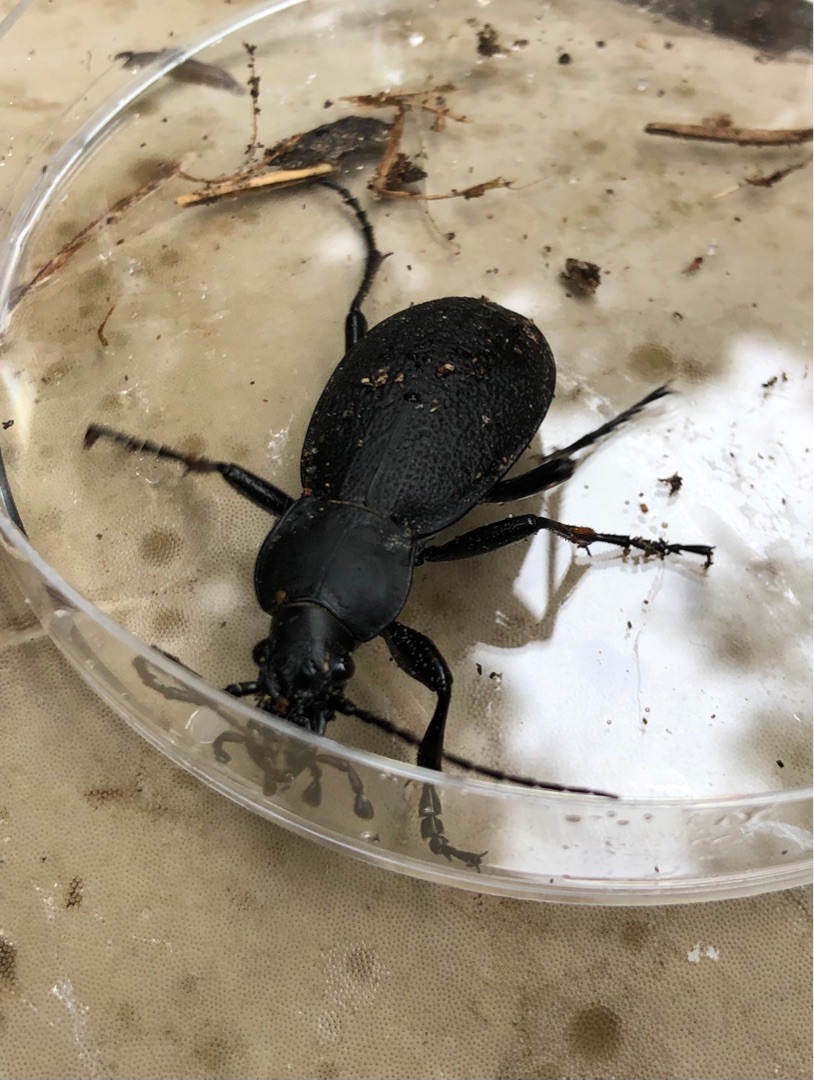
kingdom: Animalia
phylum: Arthropoda
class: Insecta
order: Coleoptera
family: Carabidae
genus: Carabus
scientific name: Carabus coriaceus
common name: Læderløber
